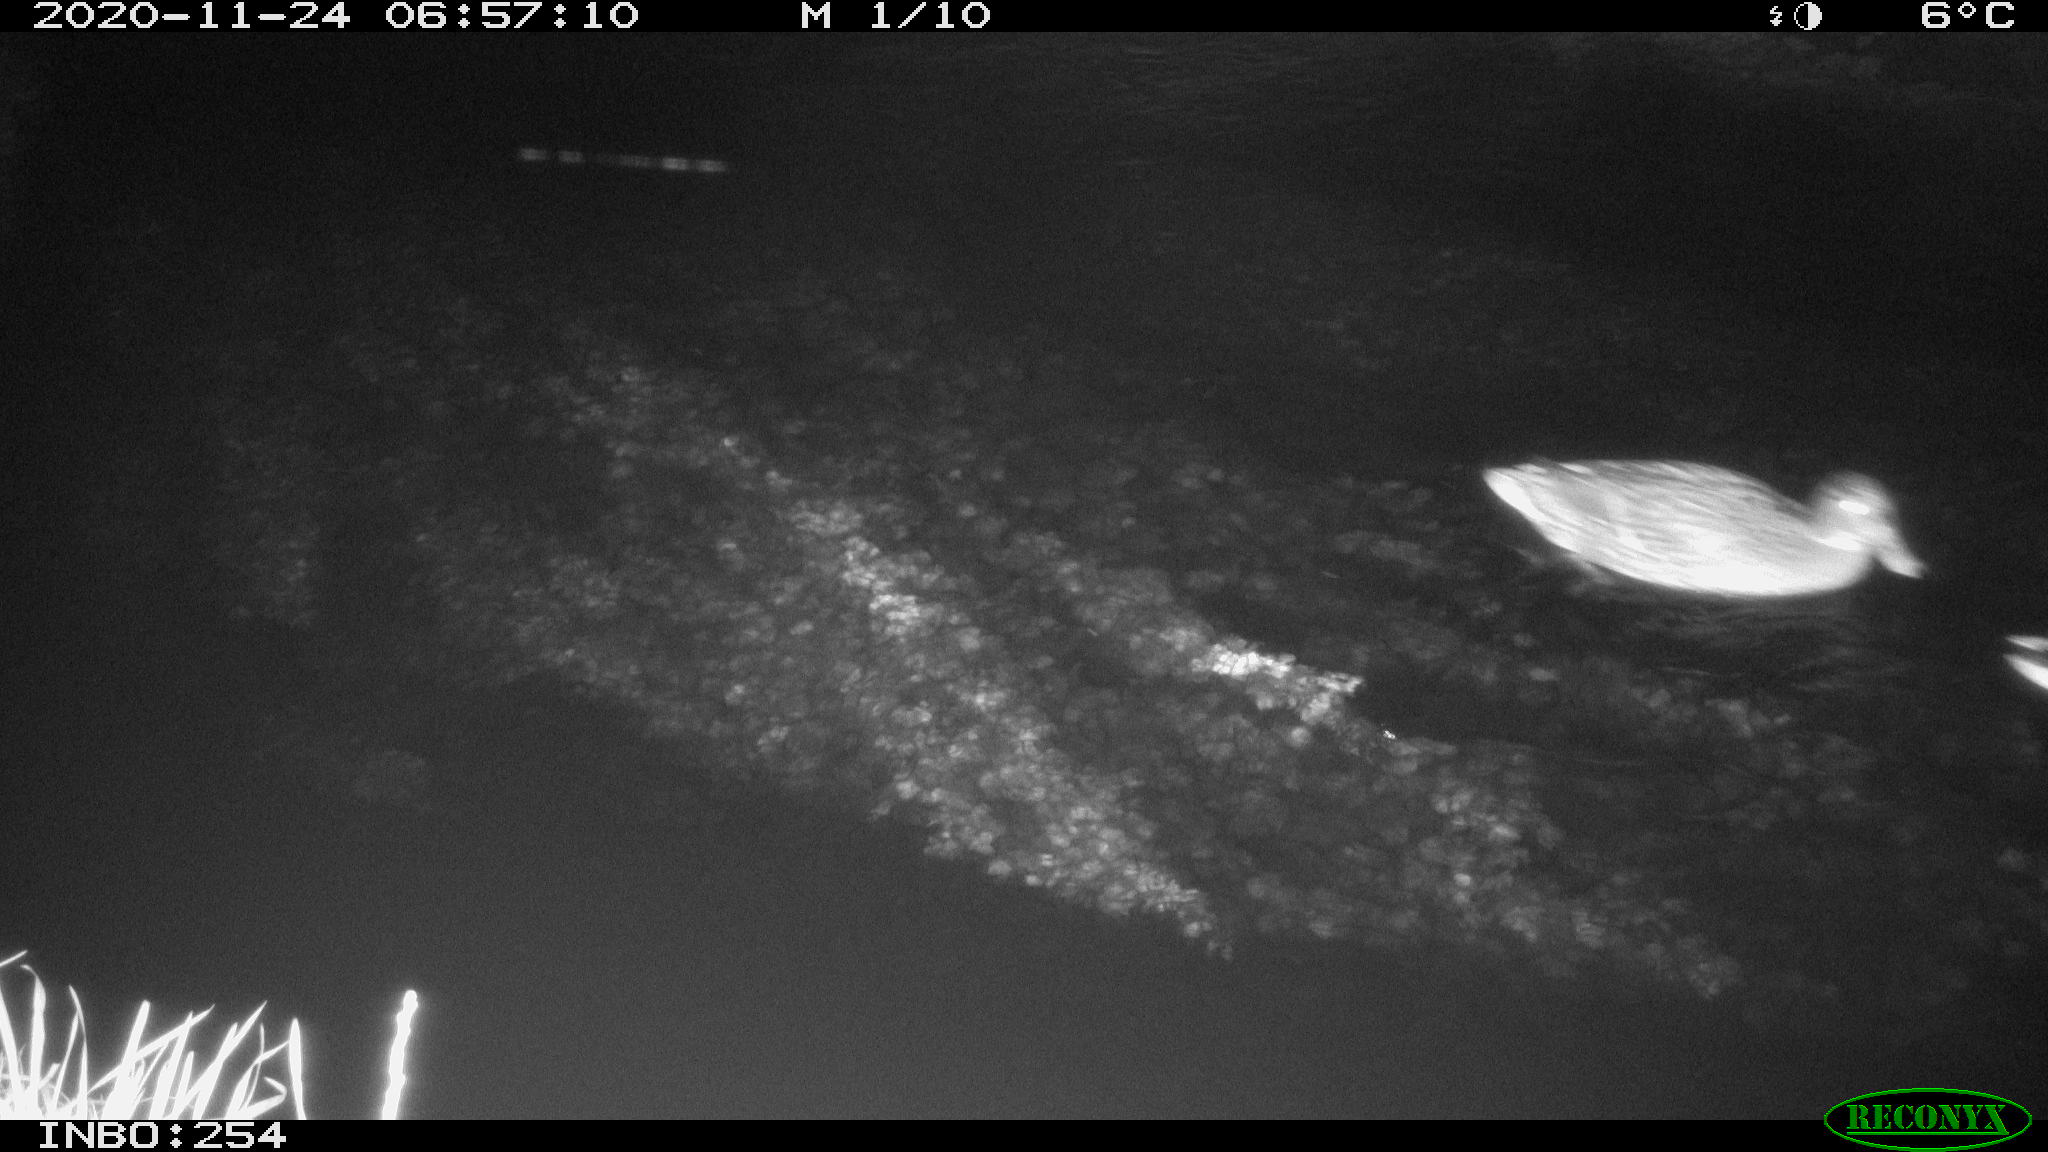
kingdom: Animalia
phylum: Chordata
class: Aves
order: Anseriformes
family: Anatidae
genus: Anas
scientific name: Anas platyrhynchos
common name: Mallard
